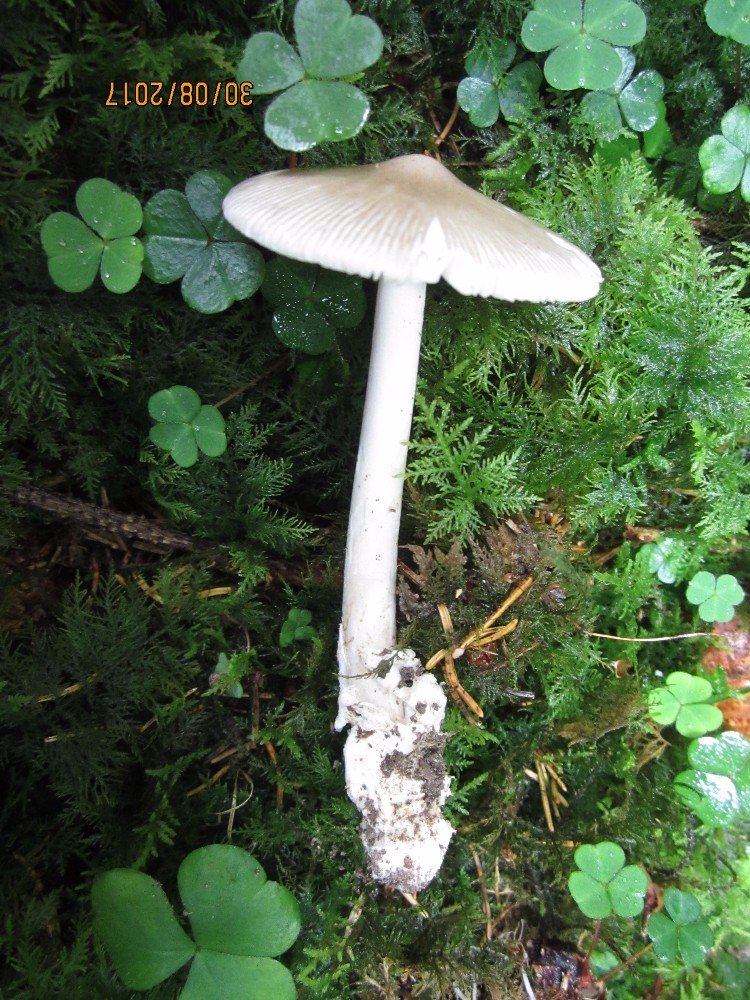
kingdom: Fungi
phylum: Basidiomycota
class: Agaricomycetes
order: Agaricales
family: Amanitaceae
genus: Amanita
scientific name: Amanita vaginata
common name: grå kam-fluesvamp
